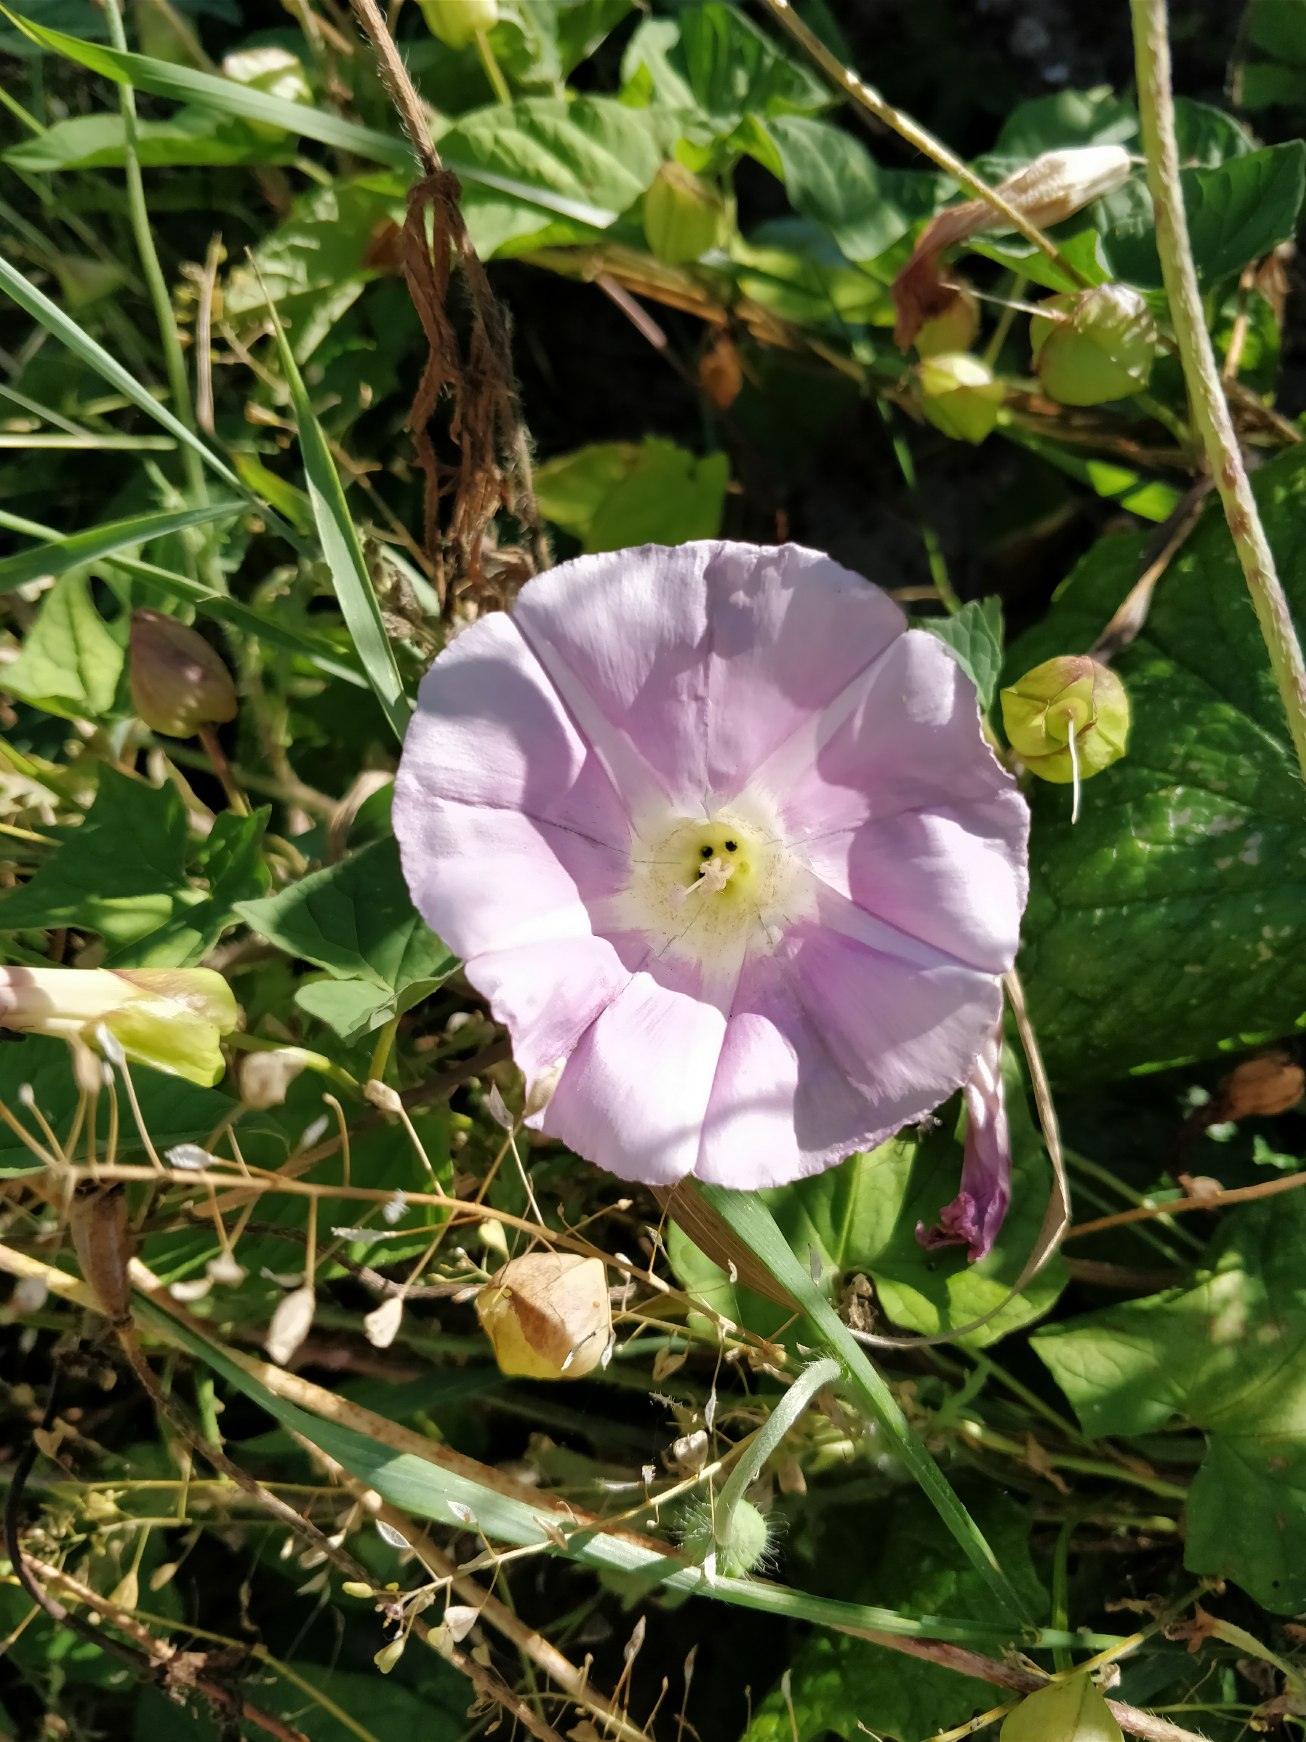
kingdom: Plantae
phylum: Tracheophyta
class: Magnoliopsida
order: Solanales
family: Convolvulaceae
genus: Calystegia
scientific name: Calystegia pulchra
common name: Have-snerle
